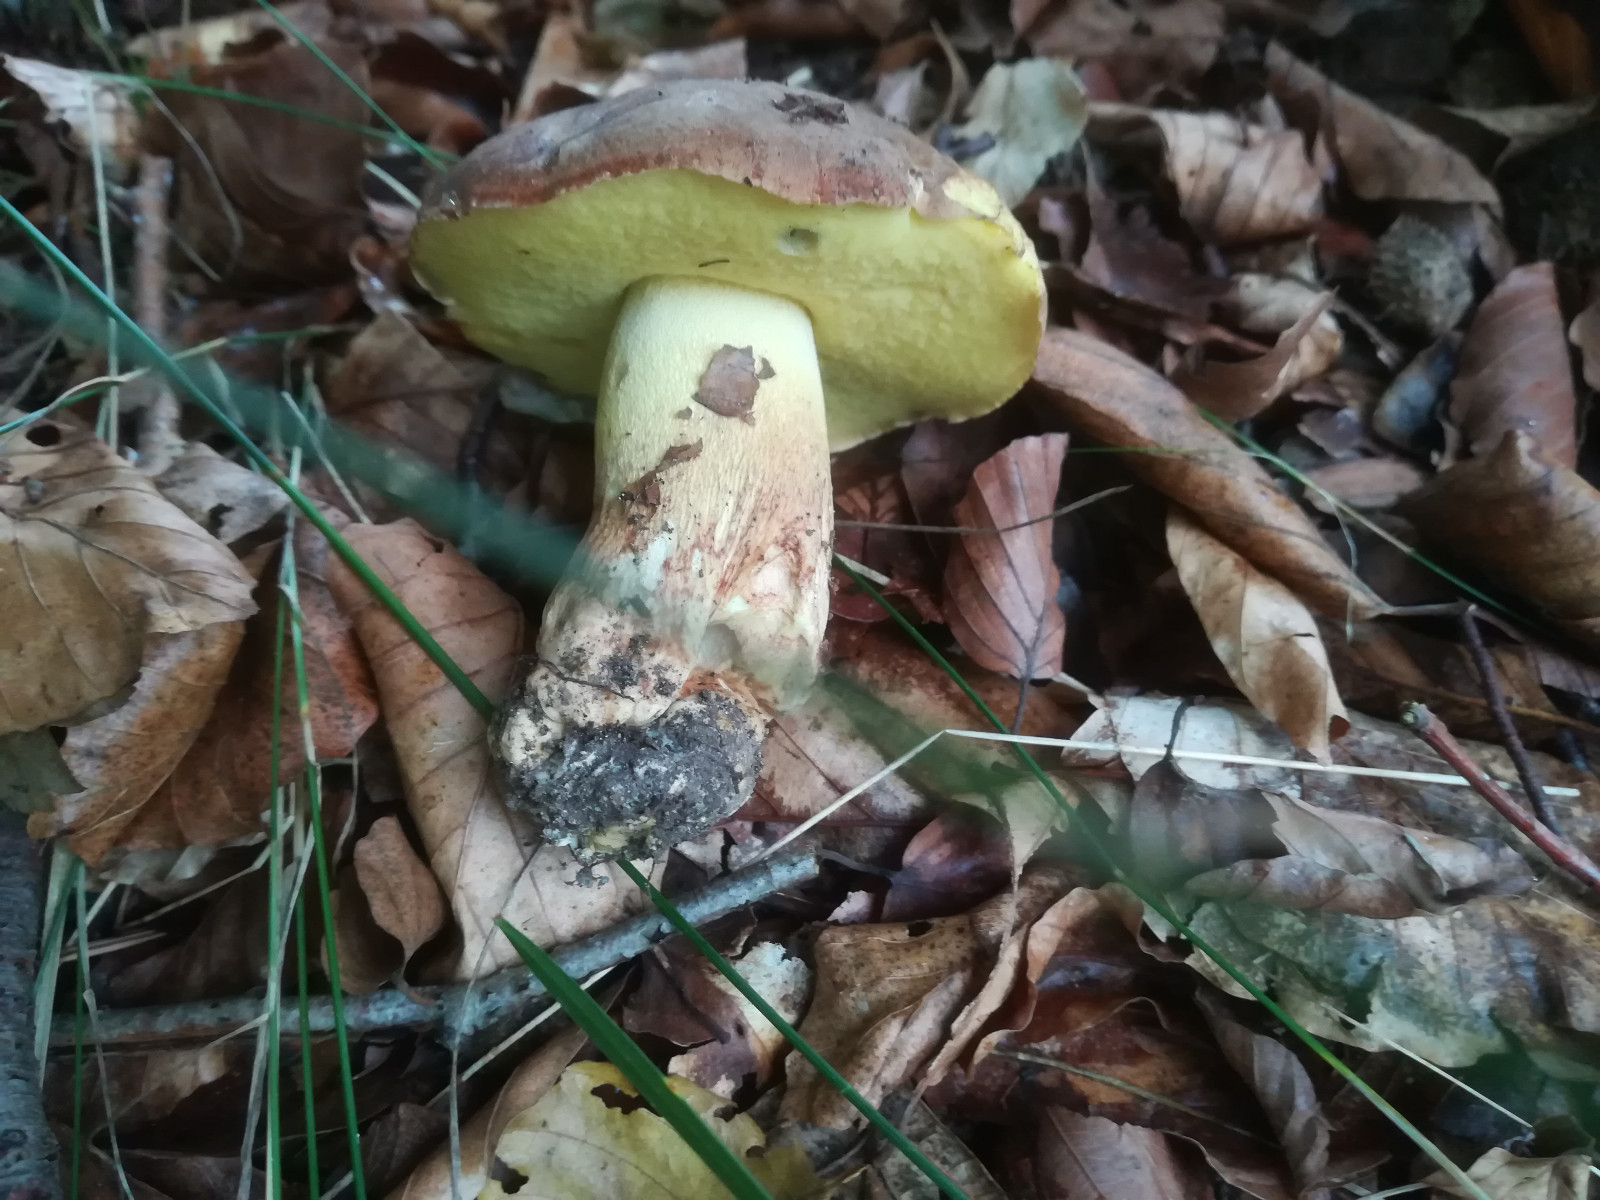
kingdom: Fungi
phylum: Basidiomycota
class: Agaricomycetes
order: Boletales
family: Boletaceae
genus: Butyriboletus
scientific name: Butyriboletus appendiculatus
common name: tenstokket rørhat
